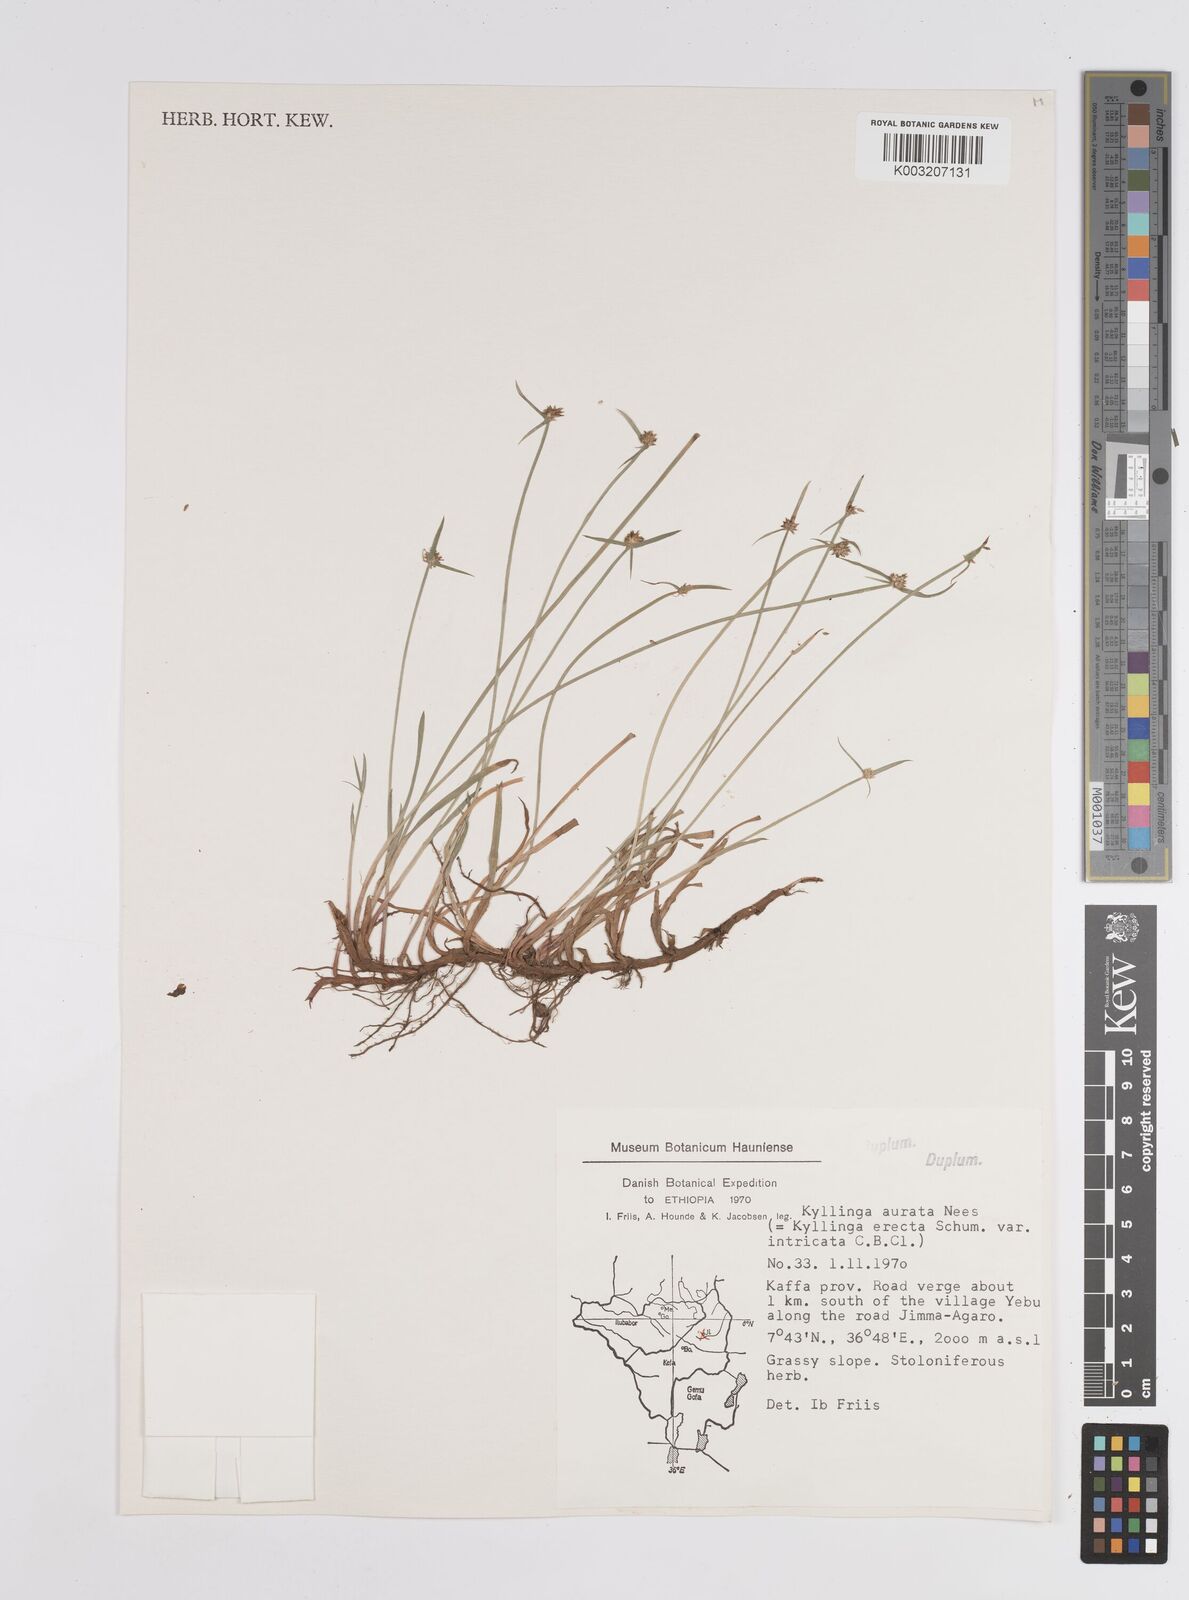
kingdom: Plantae
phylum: Tracheophyta
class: Liliopsida
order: Poales
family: Cyperaceae
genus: Cyperus
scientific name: Cyperus
